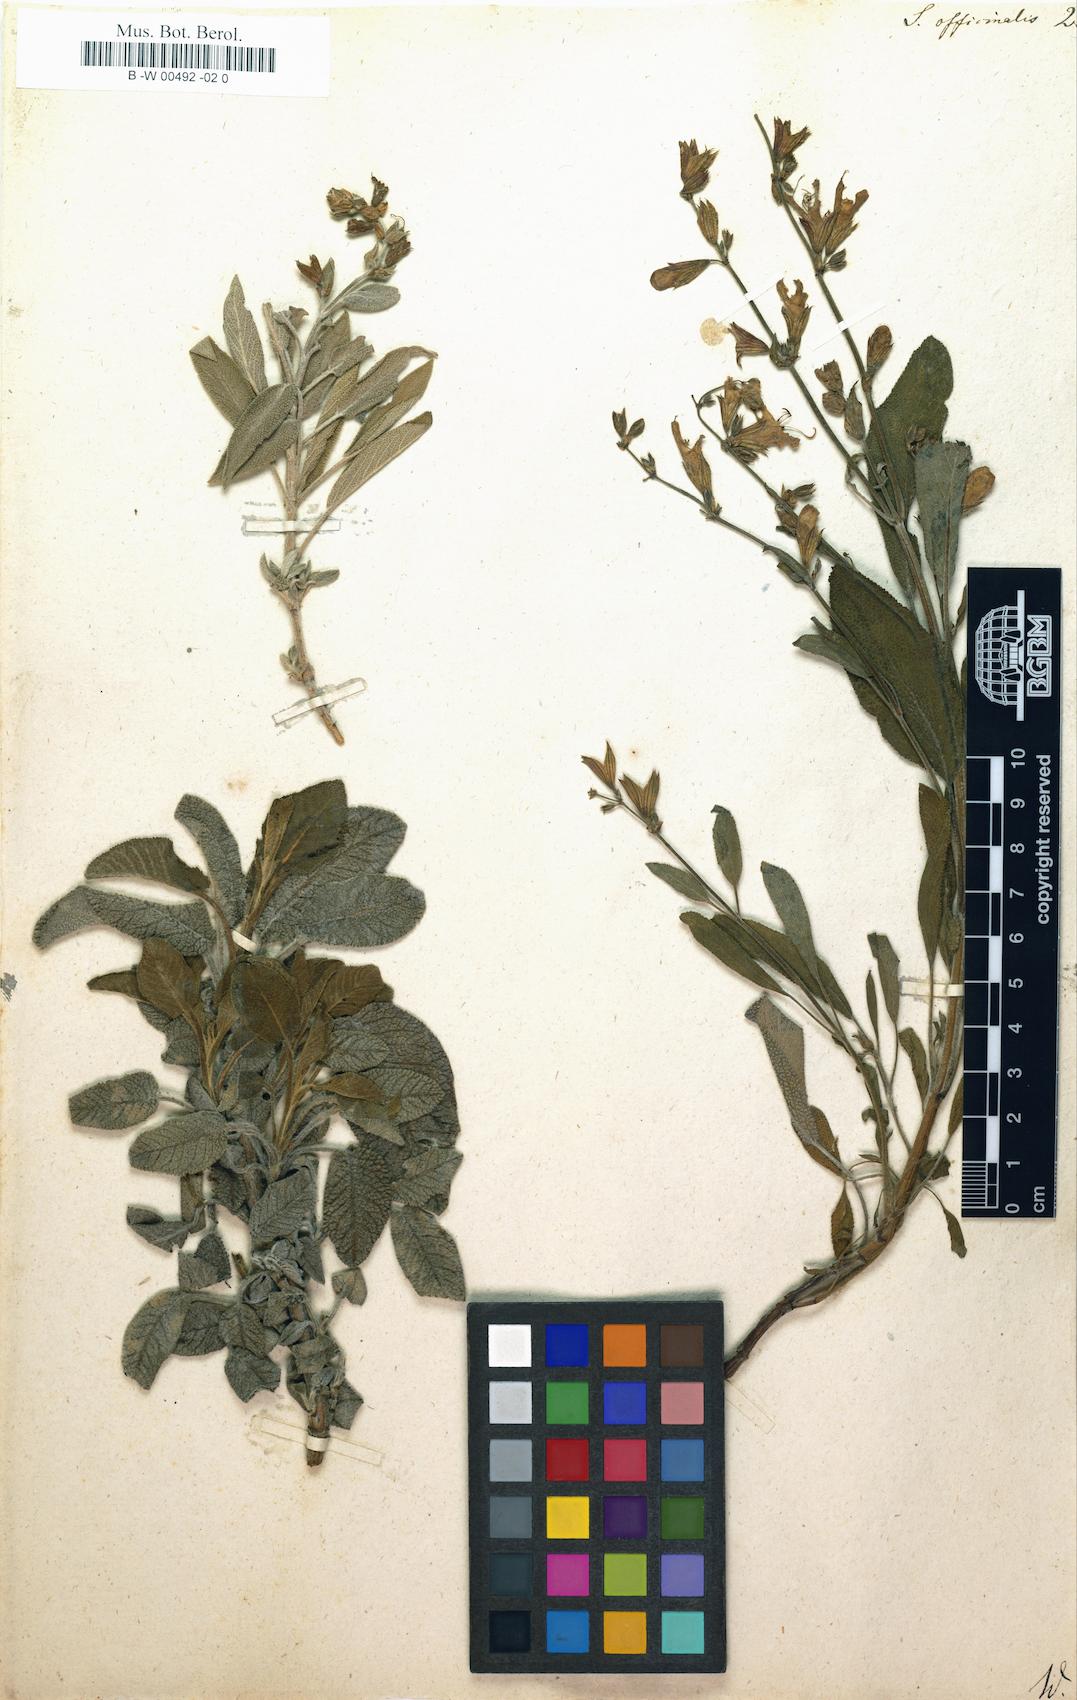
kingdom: Plantae
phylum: Tracheophyta
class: Magnoliopsida
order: Lamiales
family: Lamiaceae
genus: Salvia
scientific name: Salvia officinalis
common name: Sage
